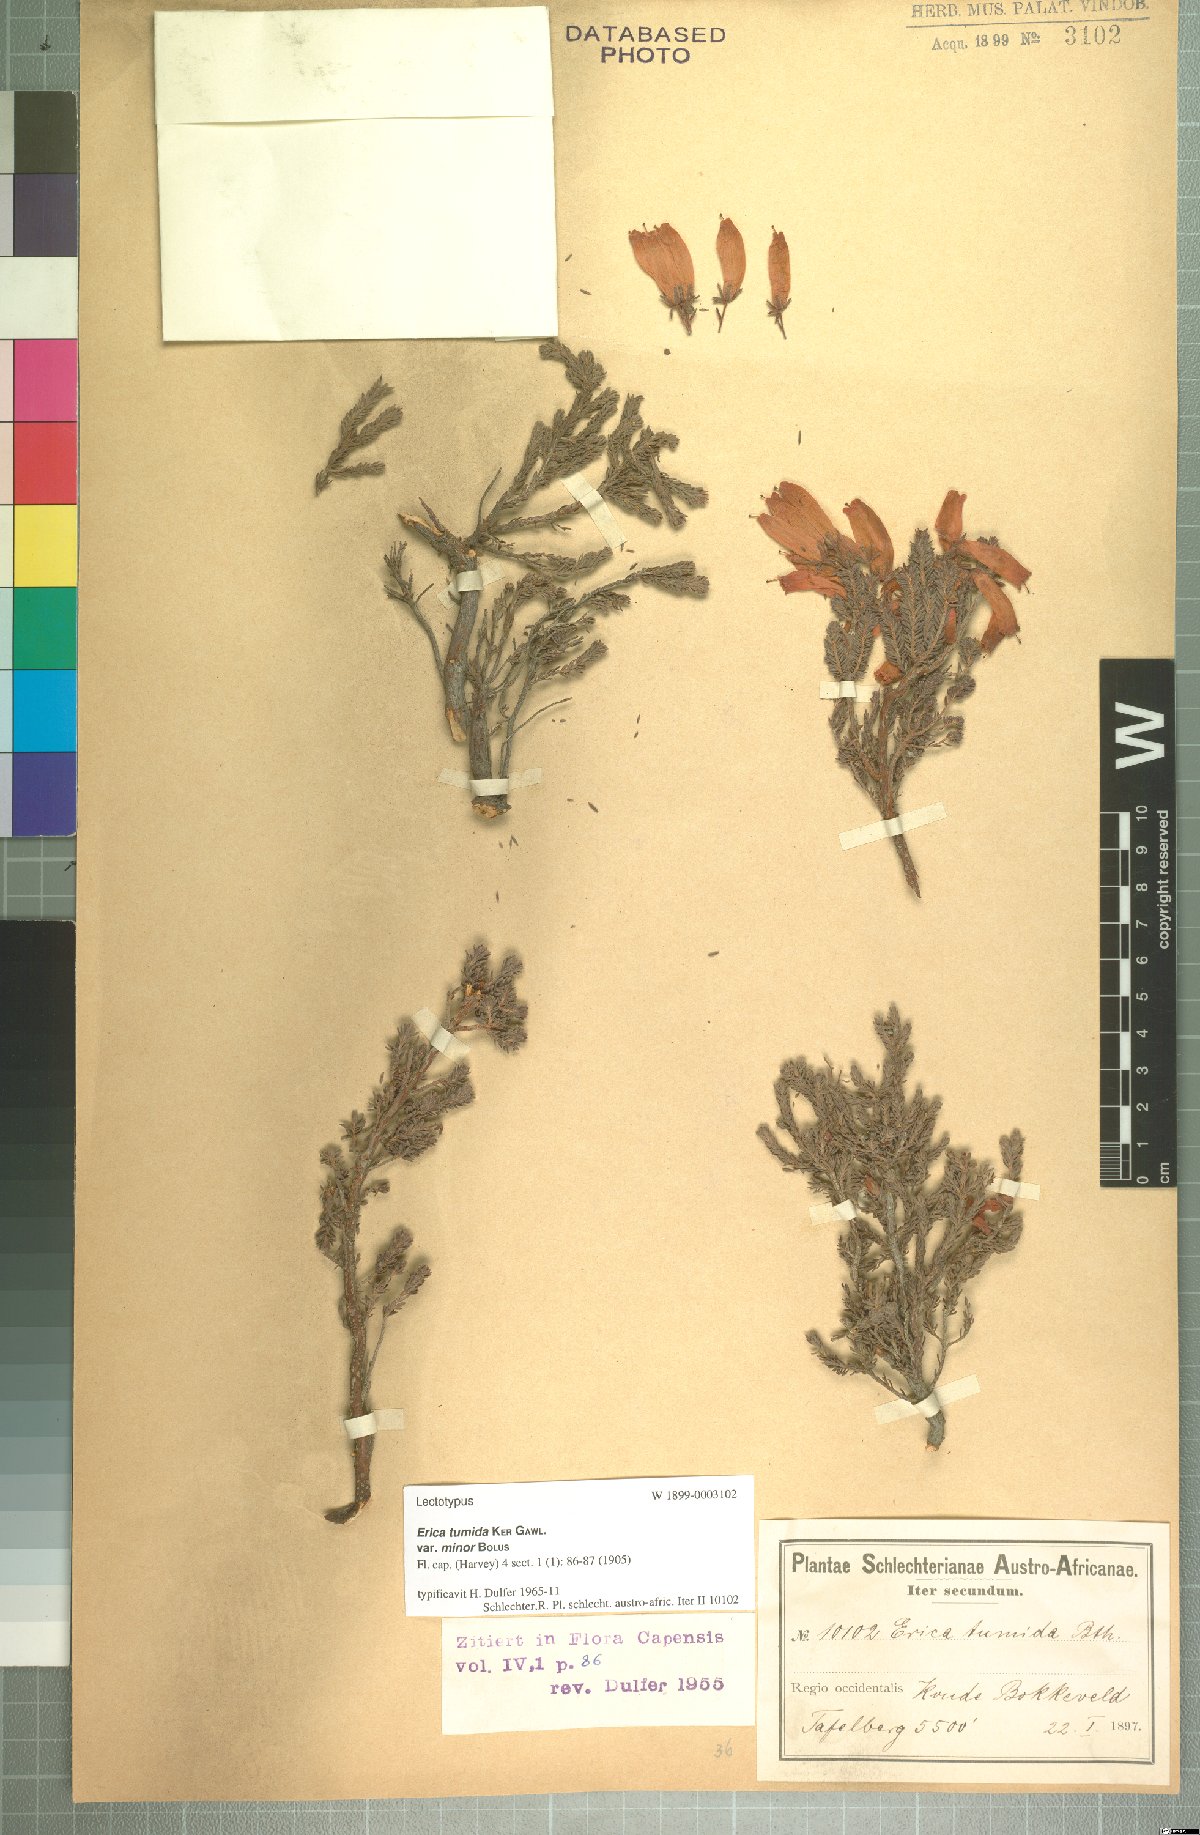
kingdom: Plantae
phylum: Tracheophyta
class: Magnoliopsida
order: Ericales
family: Ericaceae
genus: Erica
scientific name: Erica tumida
